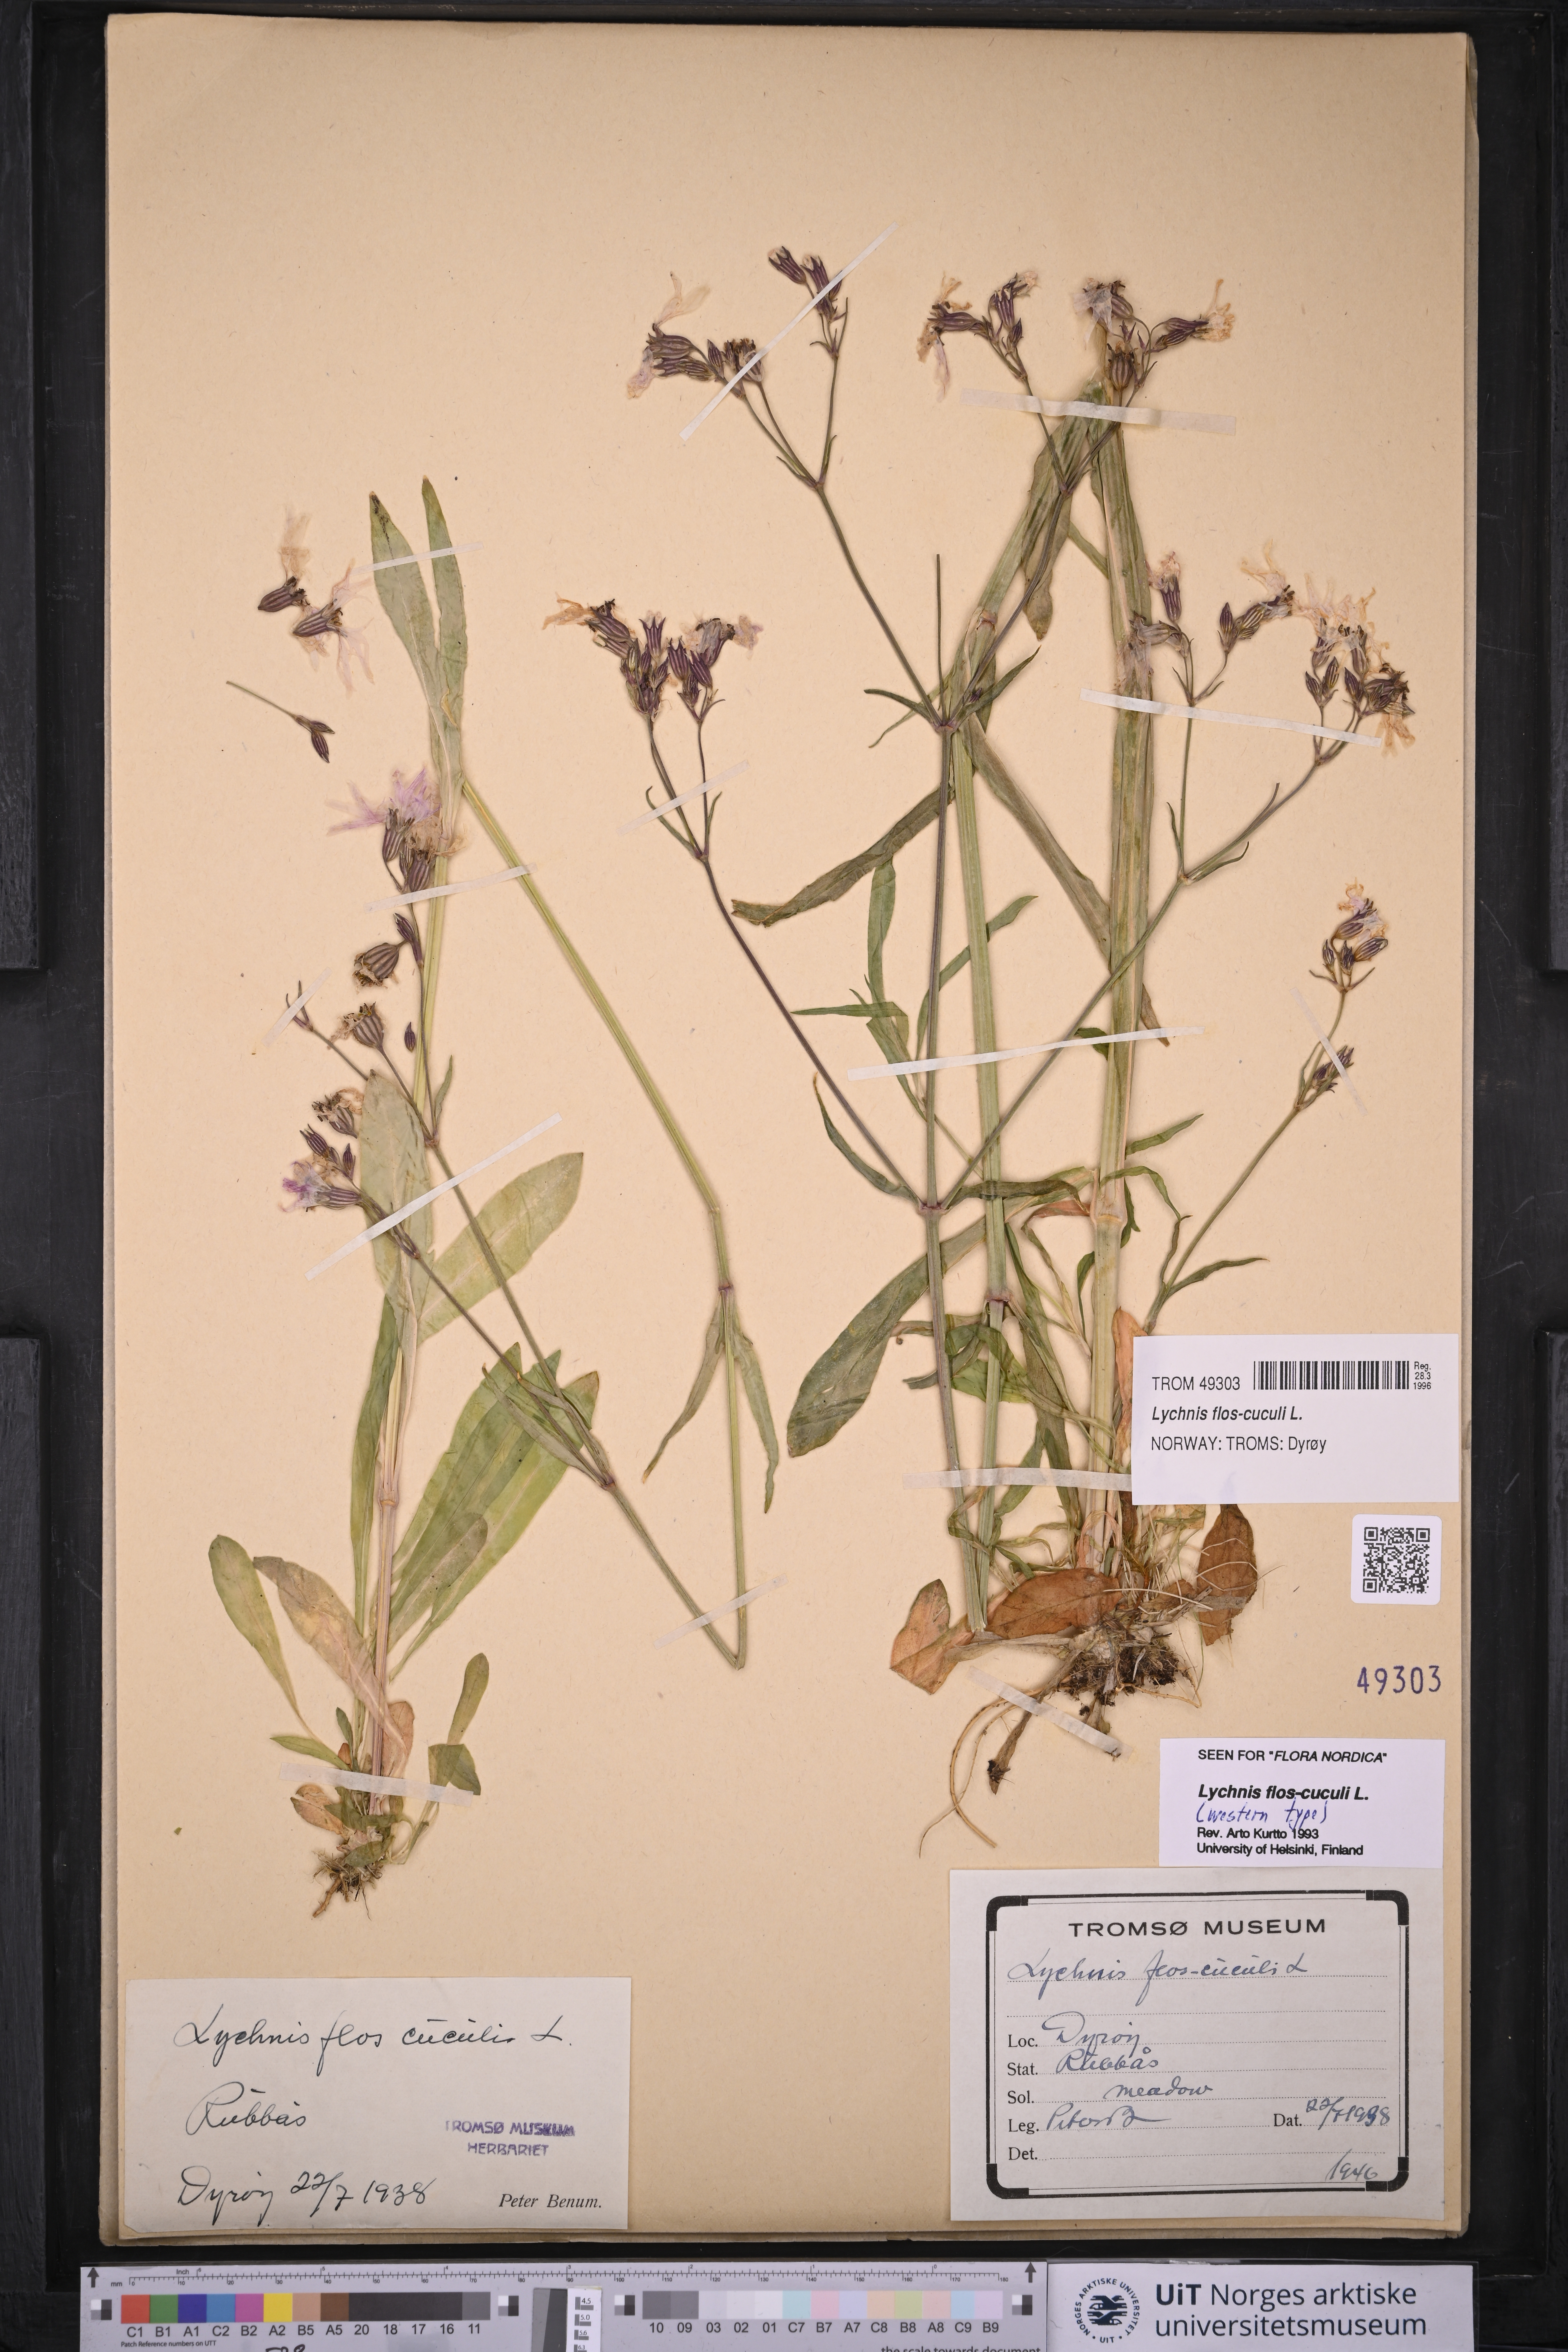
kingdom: Plantae
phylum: Tracheophyta
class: Magnoliopsida
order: Caryophyllales
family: Caryophyllaceae
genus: Silene
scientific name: Silene flos-cuculi
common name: Ragged-robin
